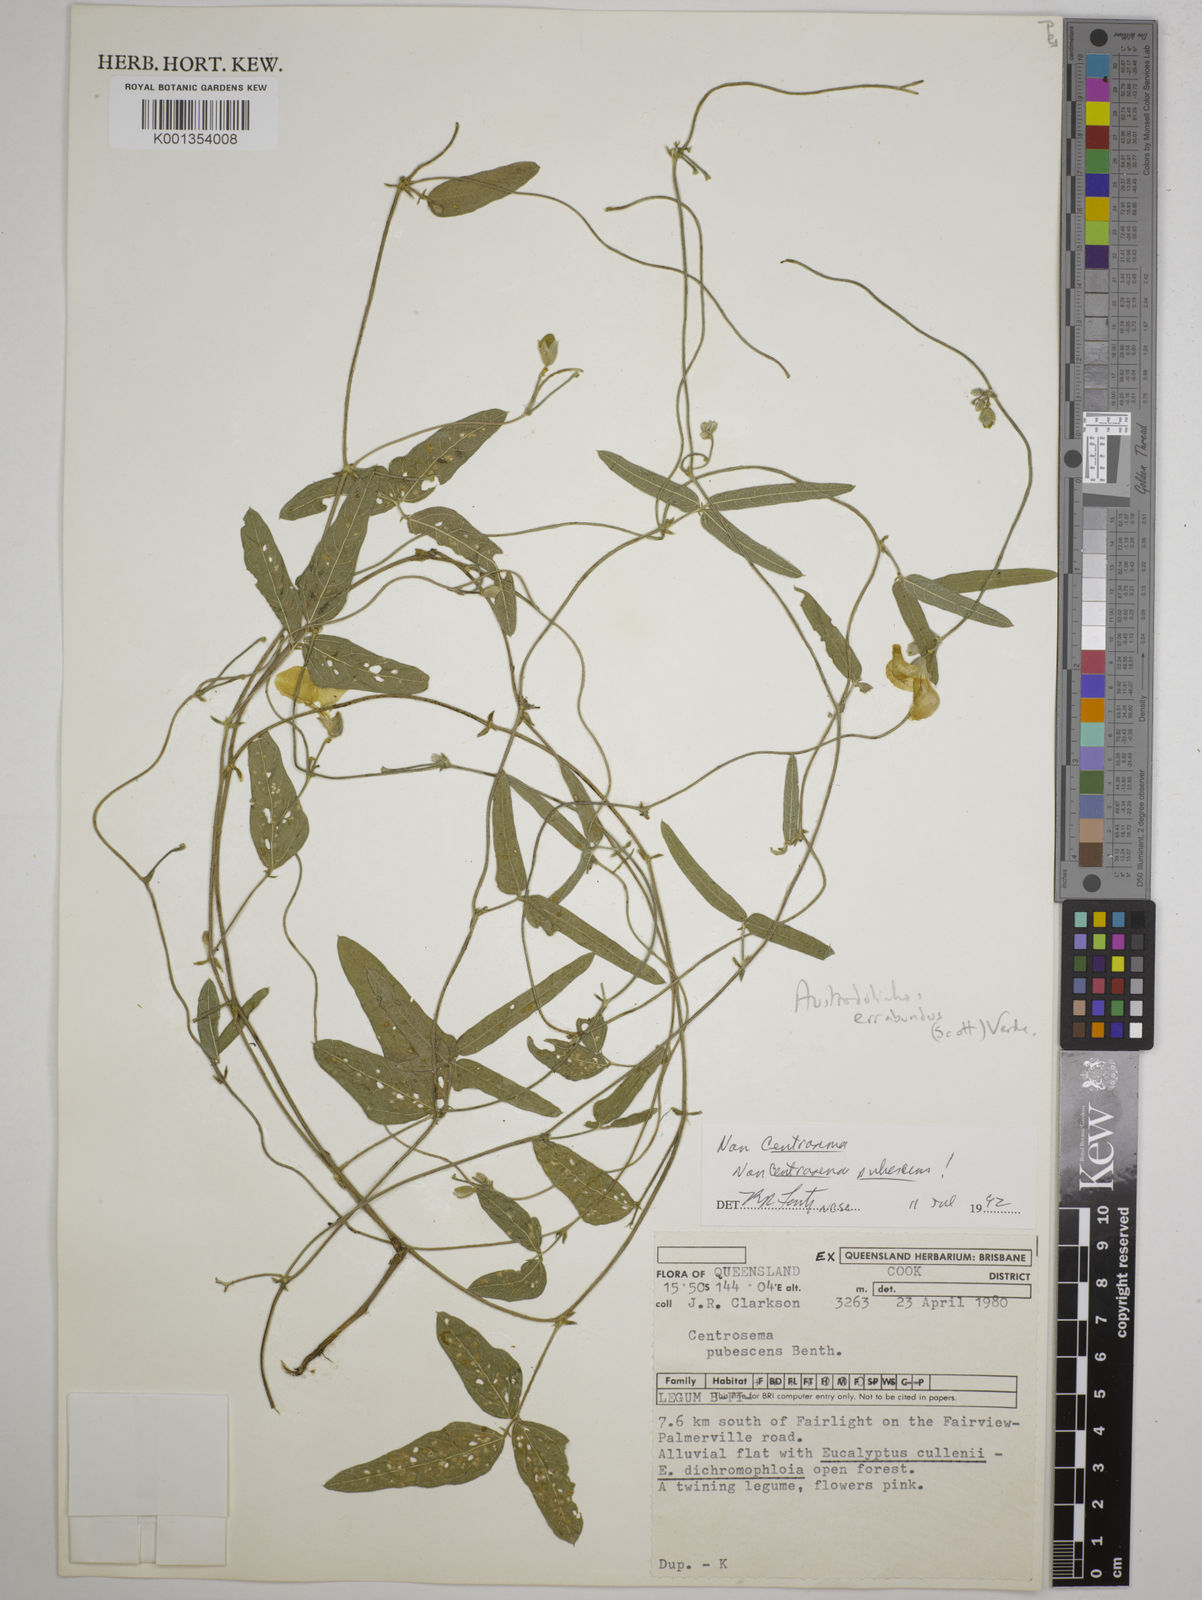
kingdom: Plantae
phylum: Tracheophyta
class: Magnoliopsida
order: Fabales
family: Fabaceae
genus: Austrodolichos
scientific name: Austrodolichos errabundus
